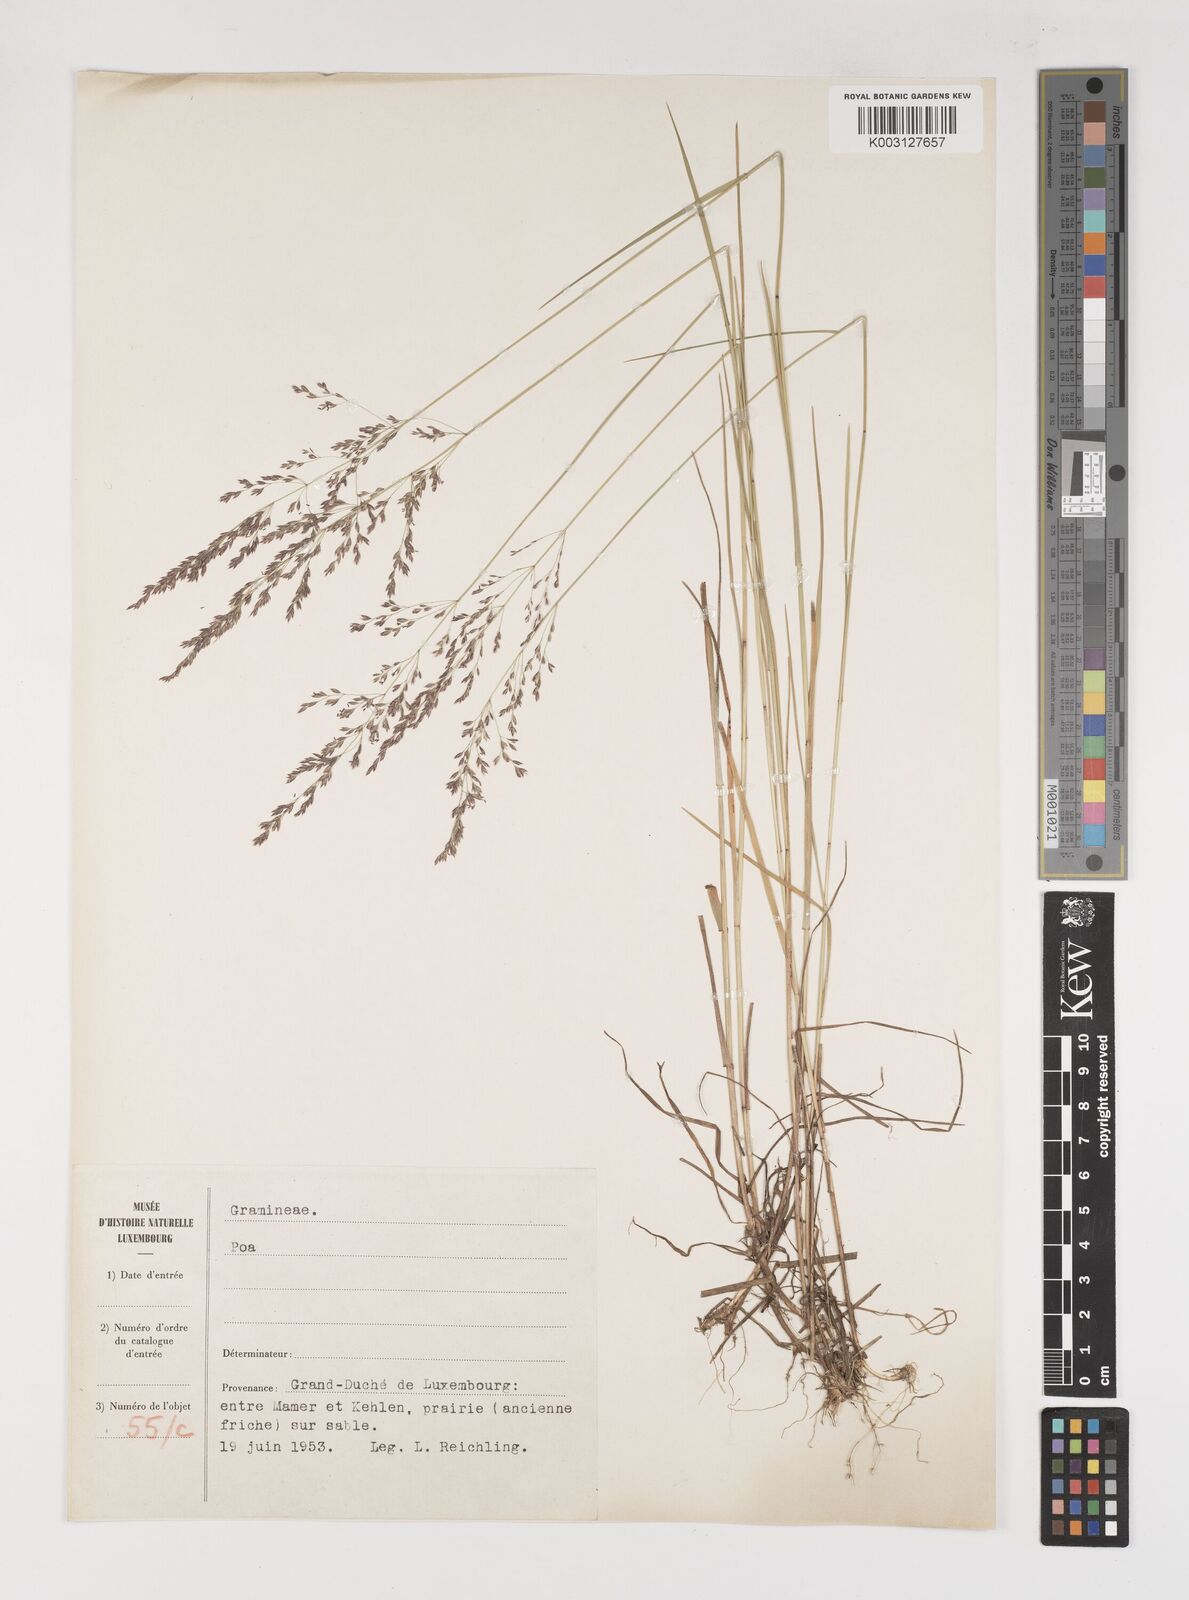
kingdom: Plantae
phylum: Tracheophyta
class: Liliopsida
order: Poales
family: Poaceae
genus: Poa
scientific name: Poa
